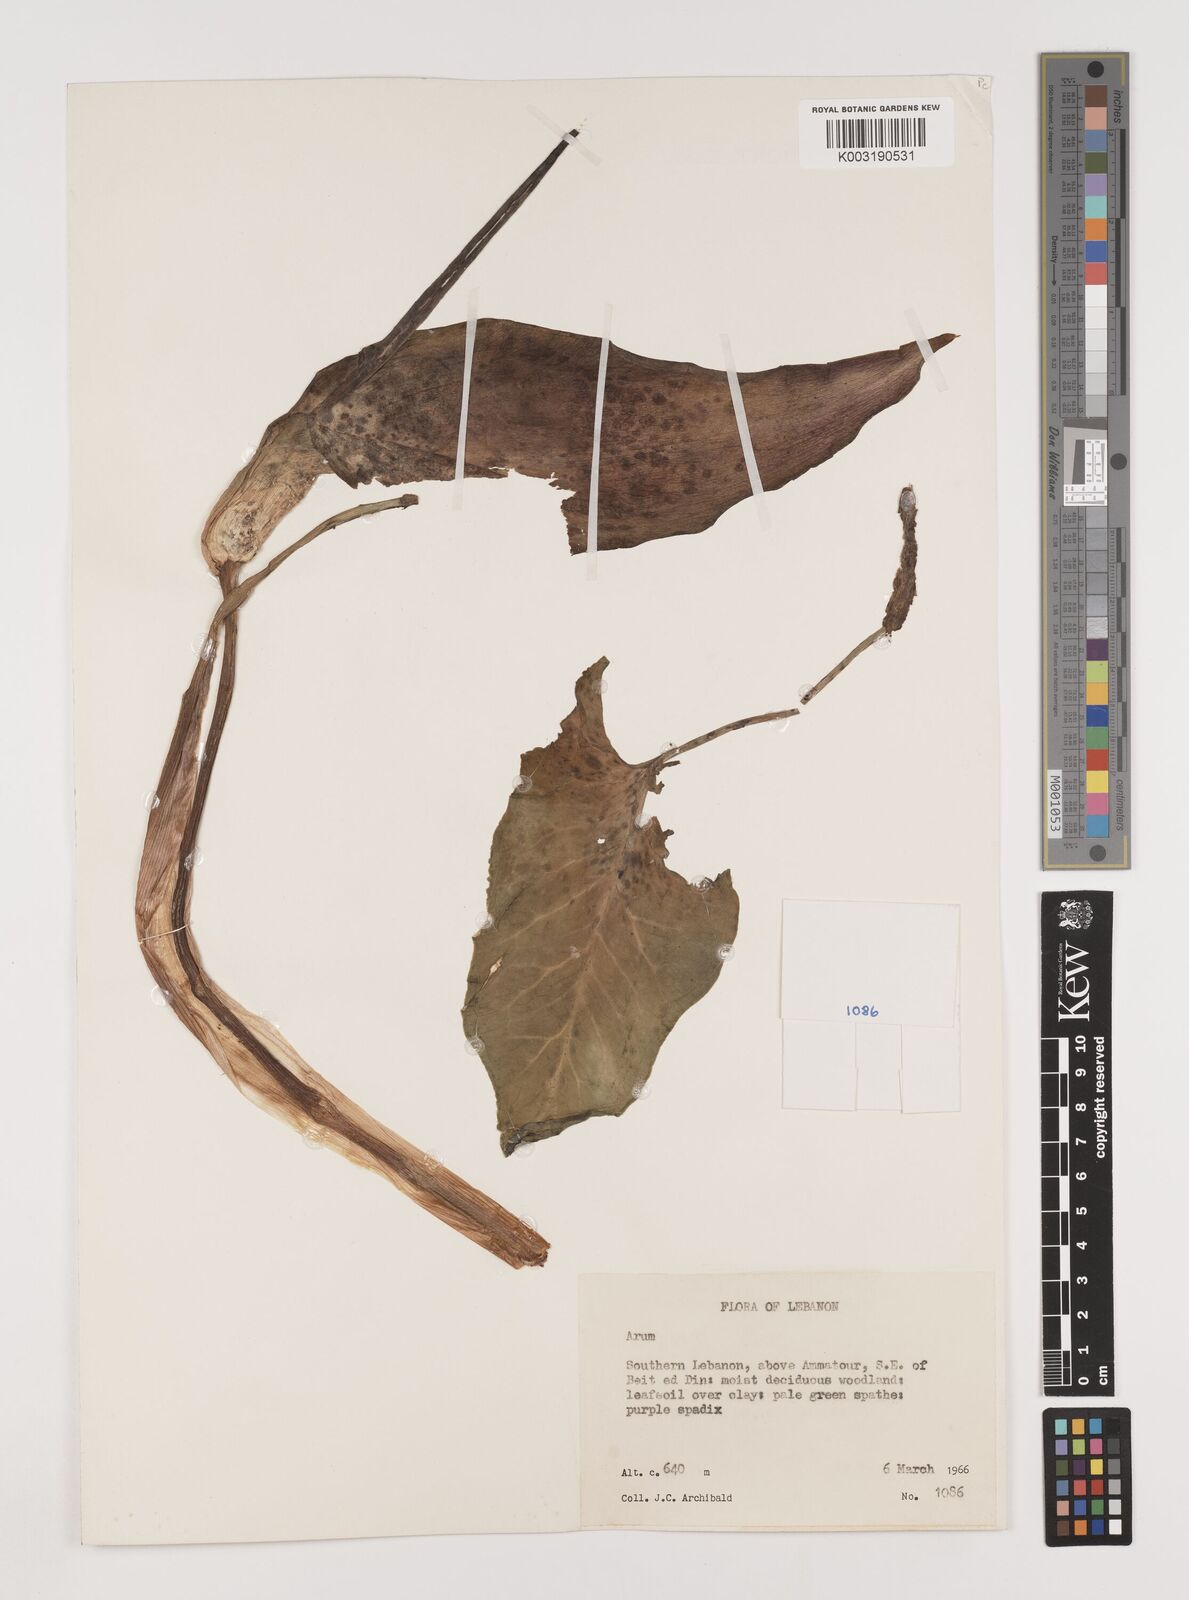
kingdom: Plantae
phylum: Tracheophyta
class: Liliopsida
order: Alismatales
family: Araceae
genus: Arum
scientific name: Arum dioscoridis
